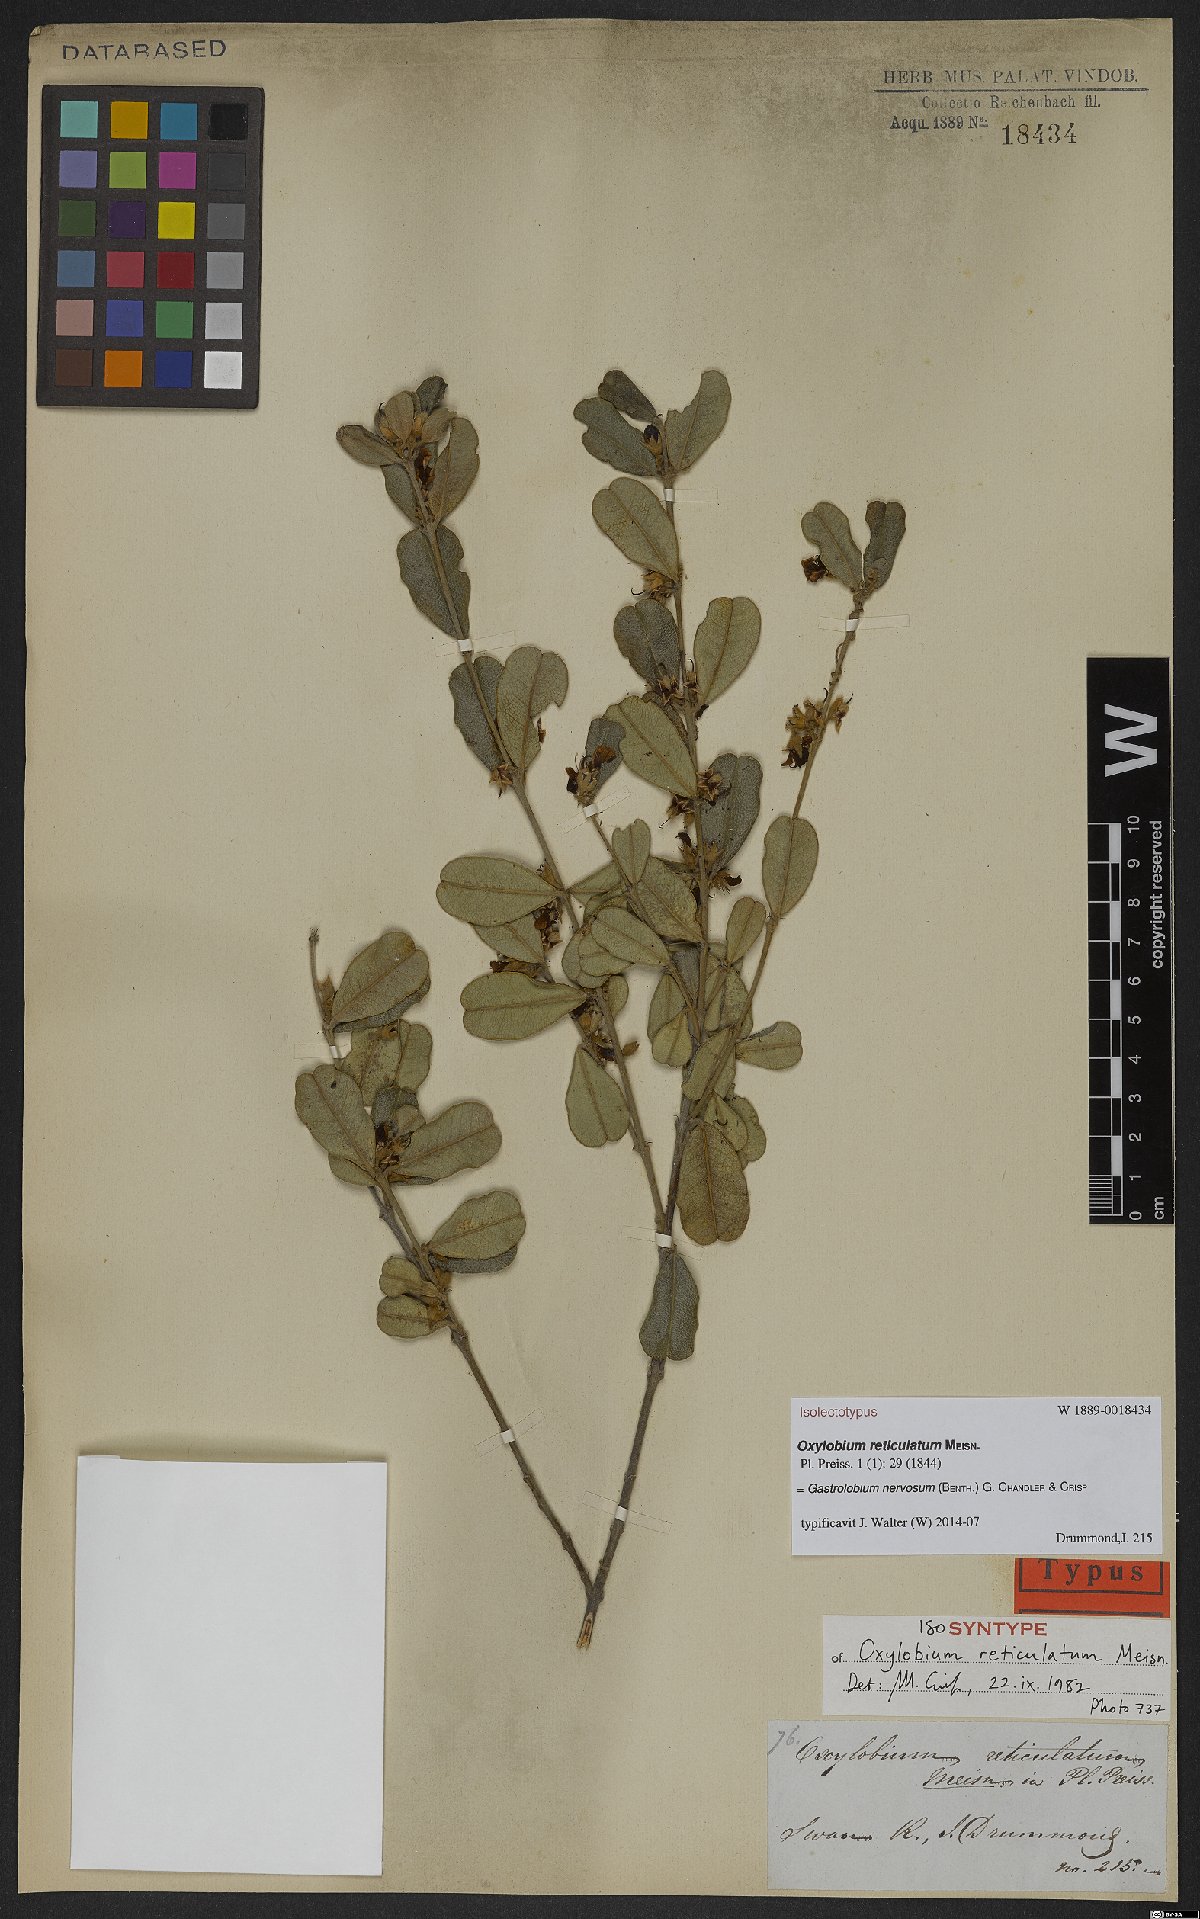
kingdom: Plantae
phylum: Tracheophyta
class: Magnoliopsida
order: Fabales
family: Fabaceae
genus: Gastrolobium
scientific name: Gastrolobium nervosum
